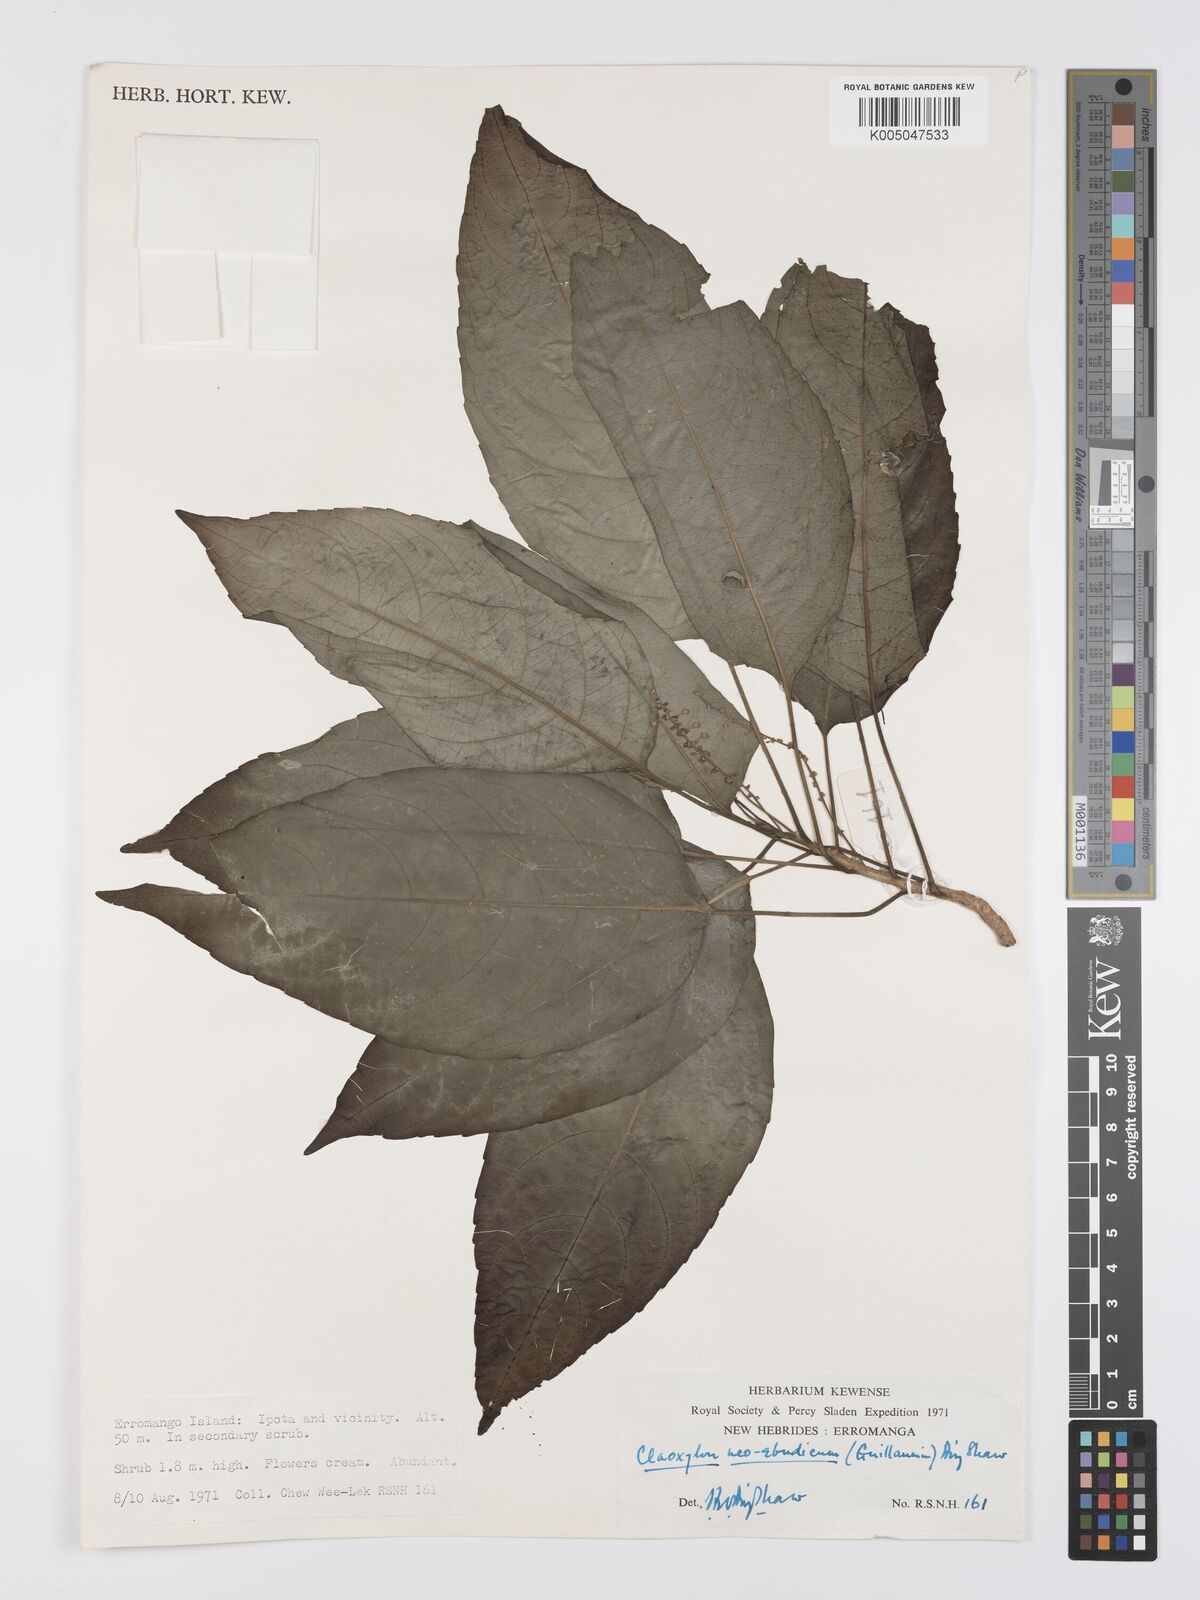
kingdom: Plantae
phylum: Tracheophyta
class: Magnoliopsida
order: Malpighiales
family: Euphorbiaceae
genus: Claoxylon
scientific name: Claoxylon neoebudicum
